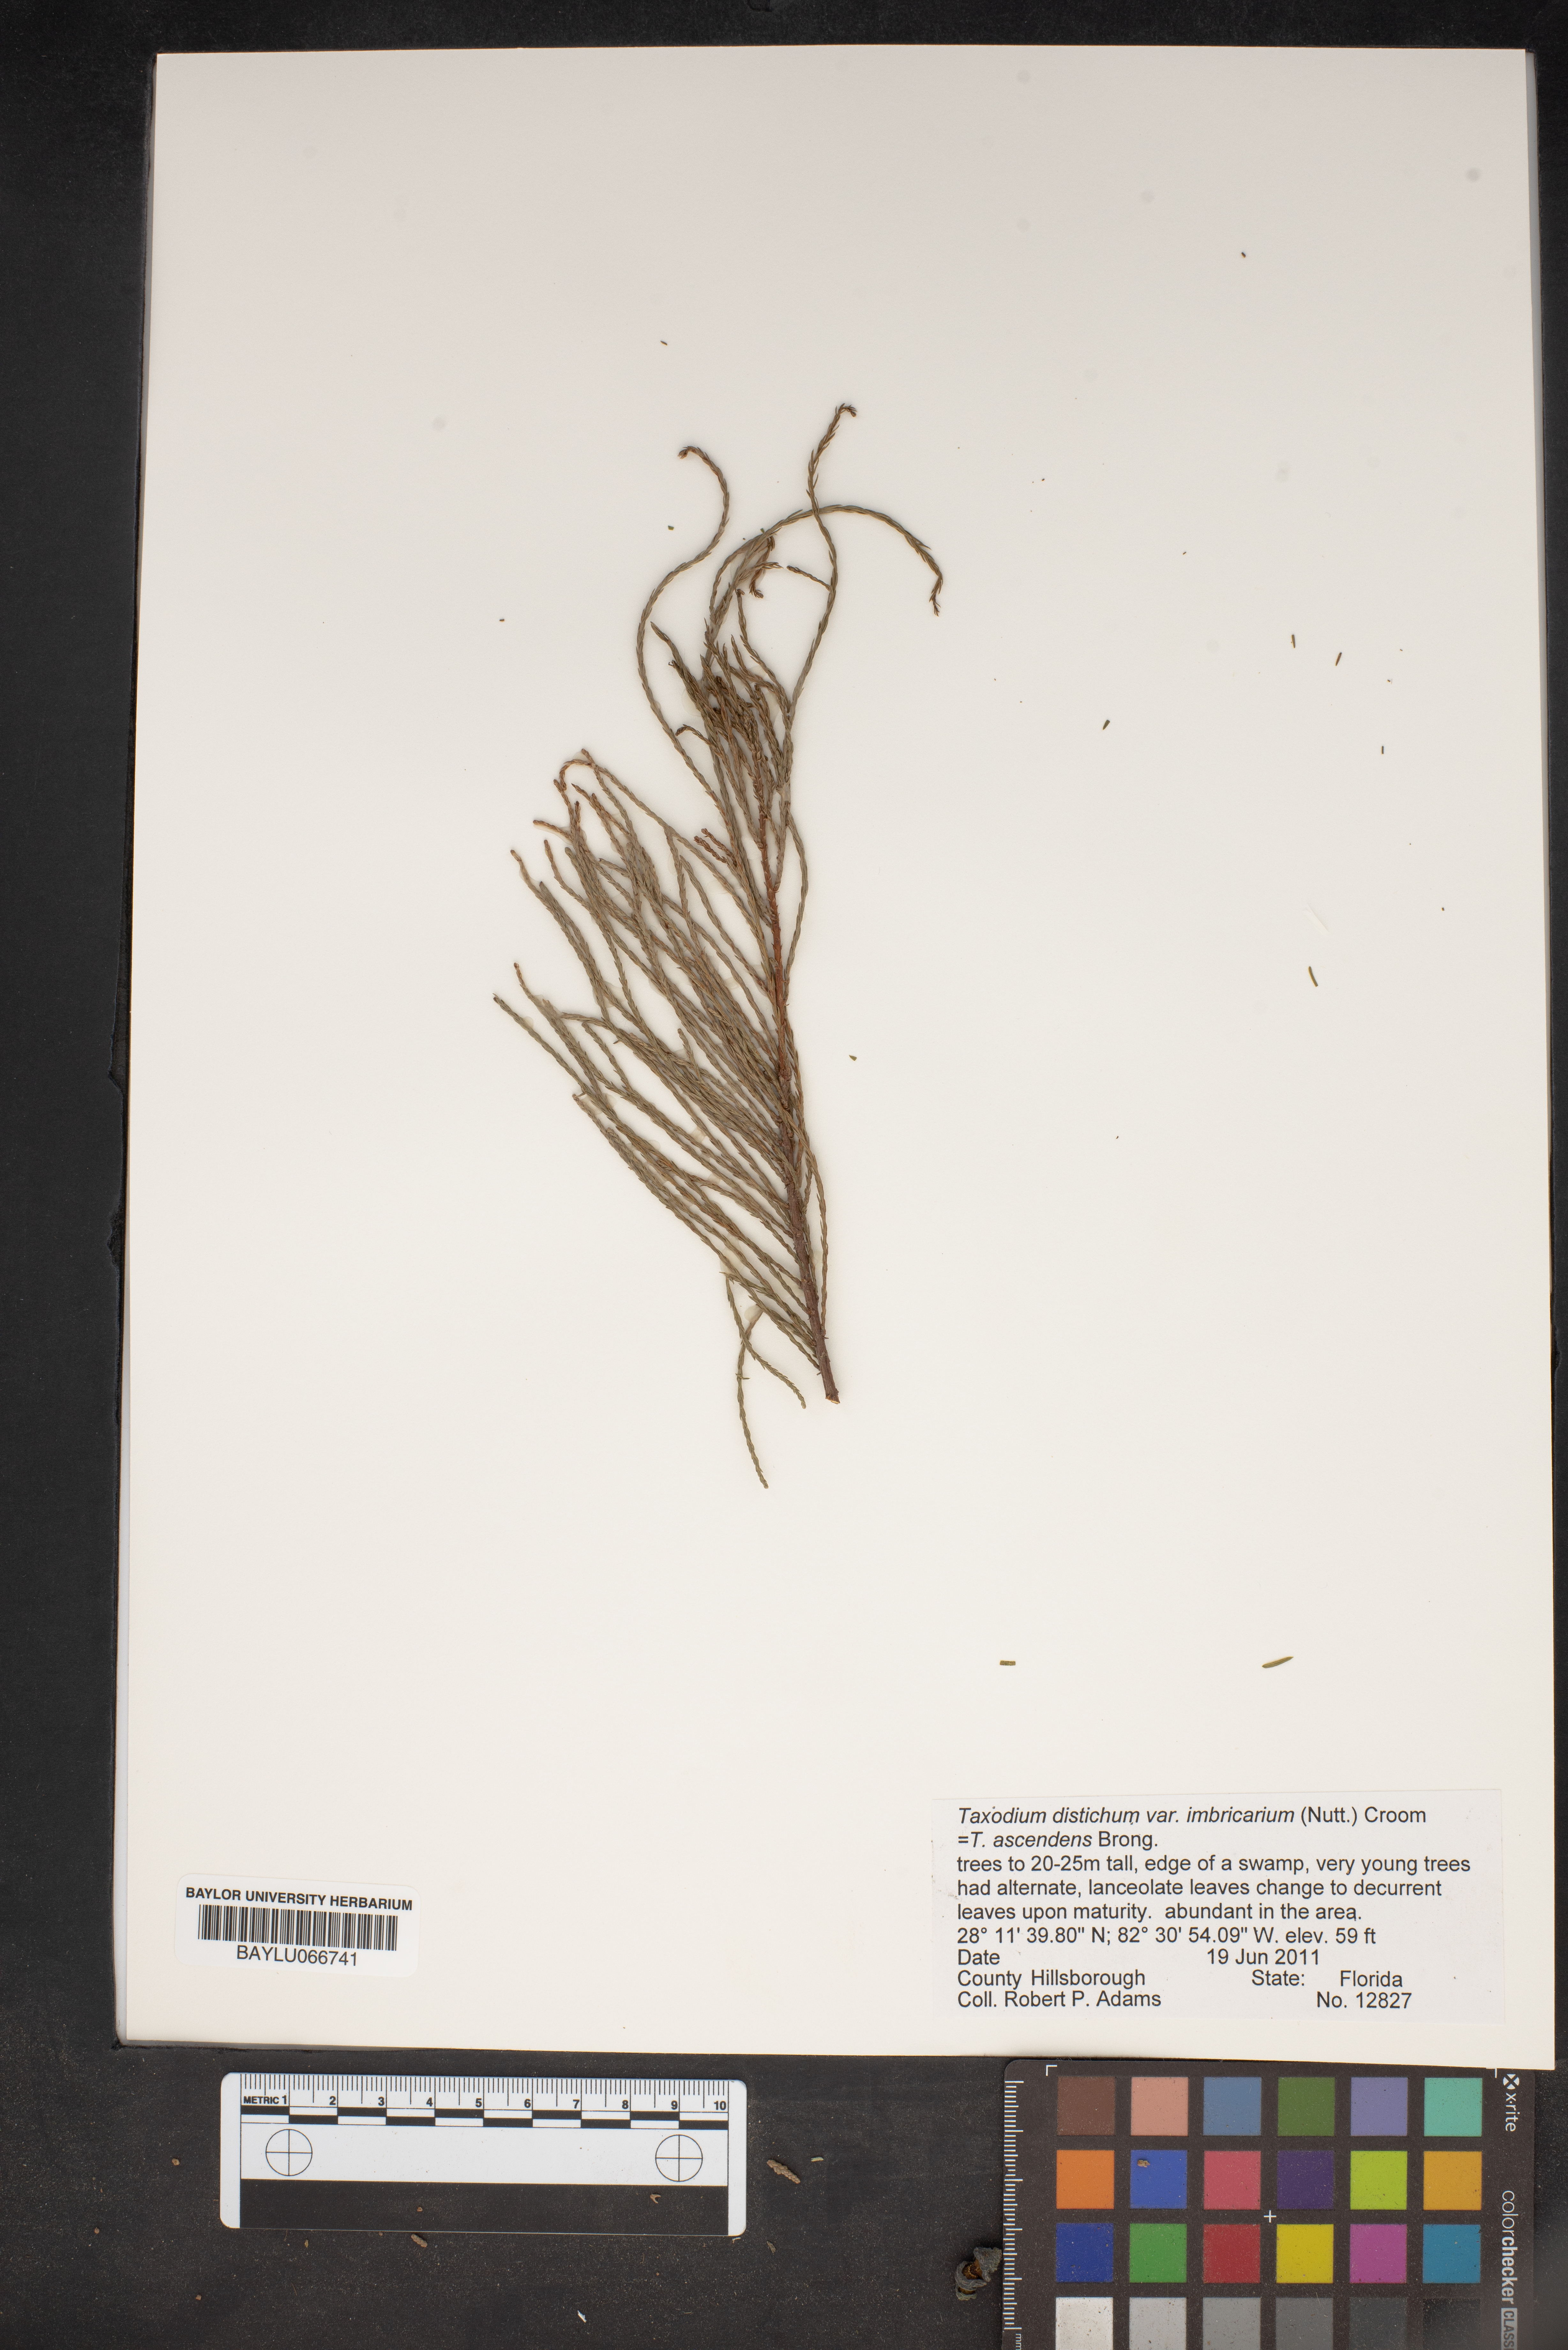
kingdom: Plantae
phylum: Tracheophyta
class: Pinopsida
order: Pinales
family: Cupressaceae
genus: Taxodium
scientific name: Taxodium distichum
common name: Bald cypress
